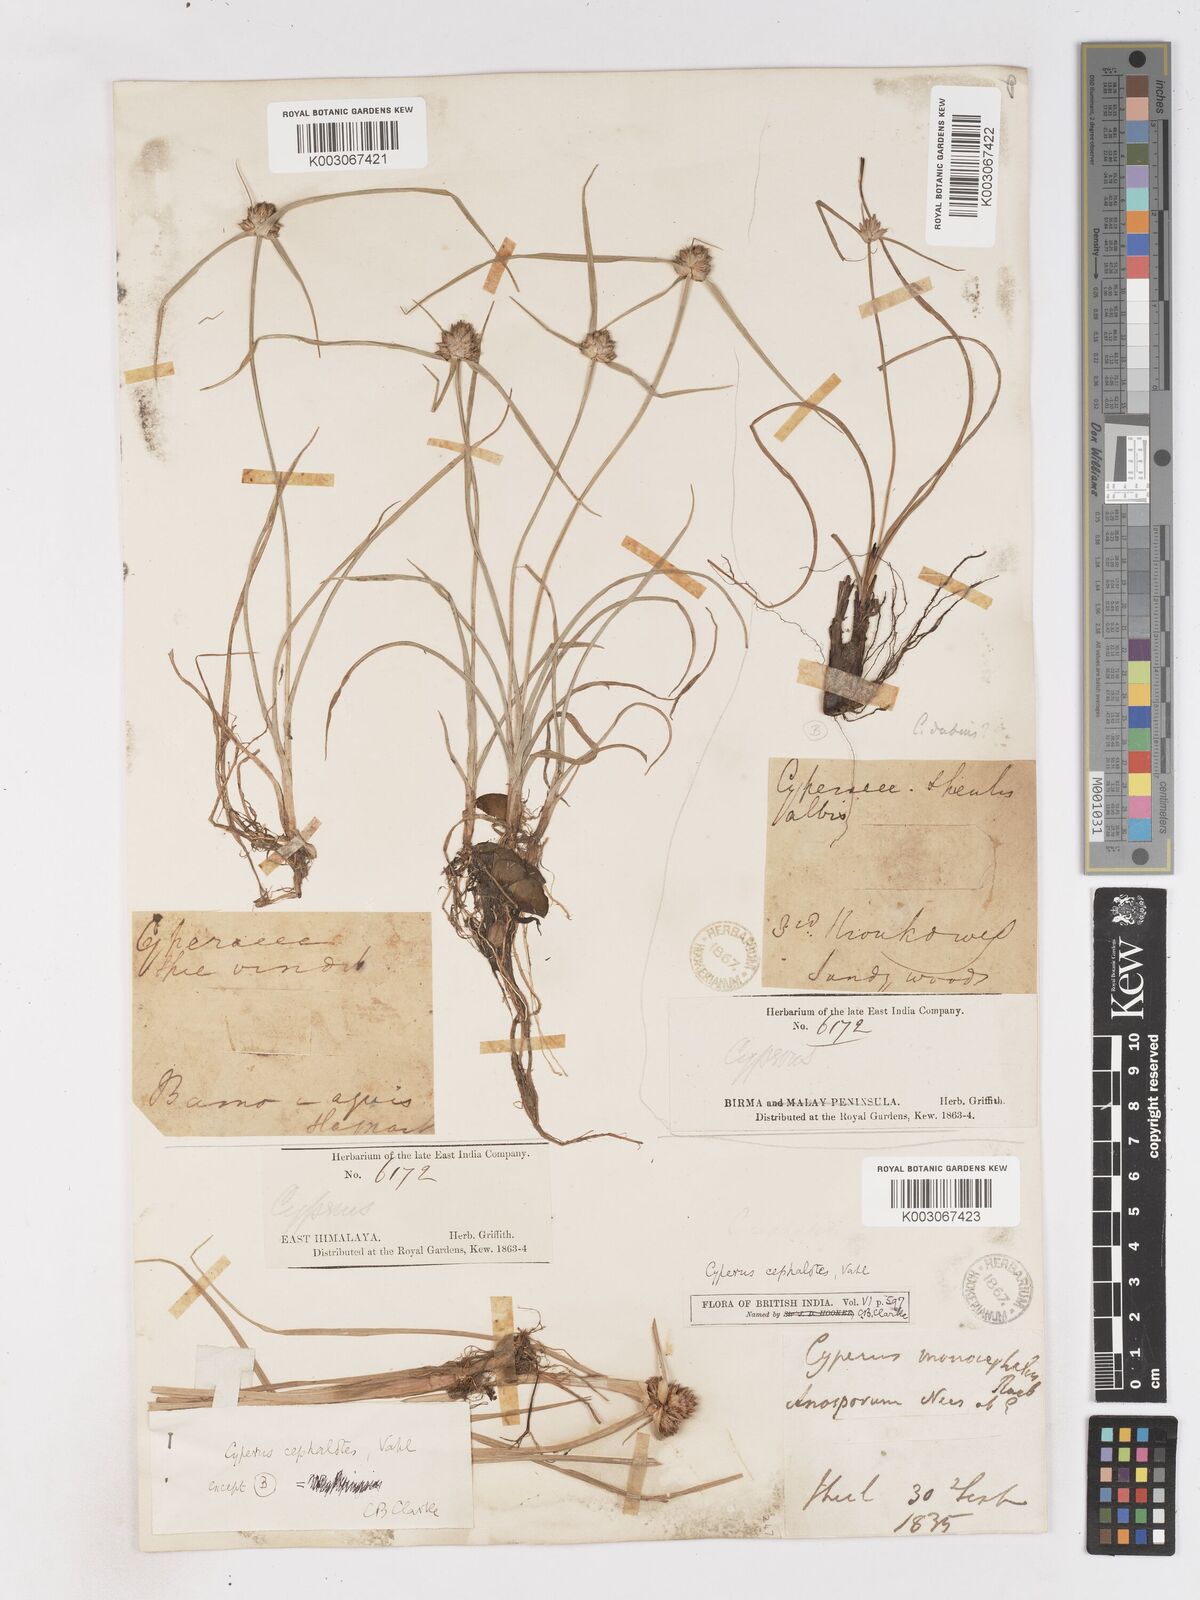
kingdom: Plantae
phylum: Tracheophyta
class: Liliopsida
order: Poales
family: Cyperaceae
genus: Cyperus
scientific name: Cyperus cephalotes
